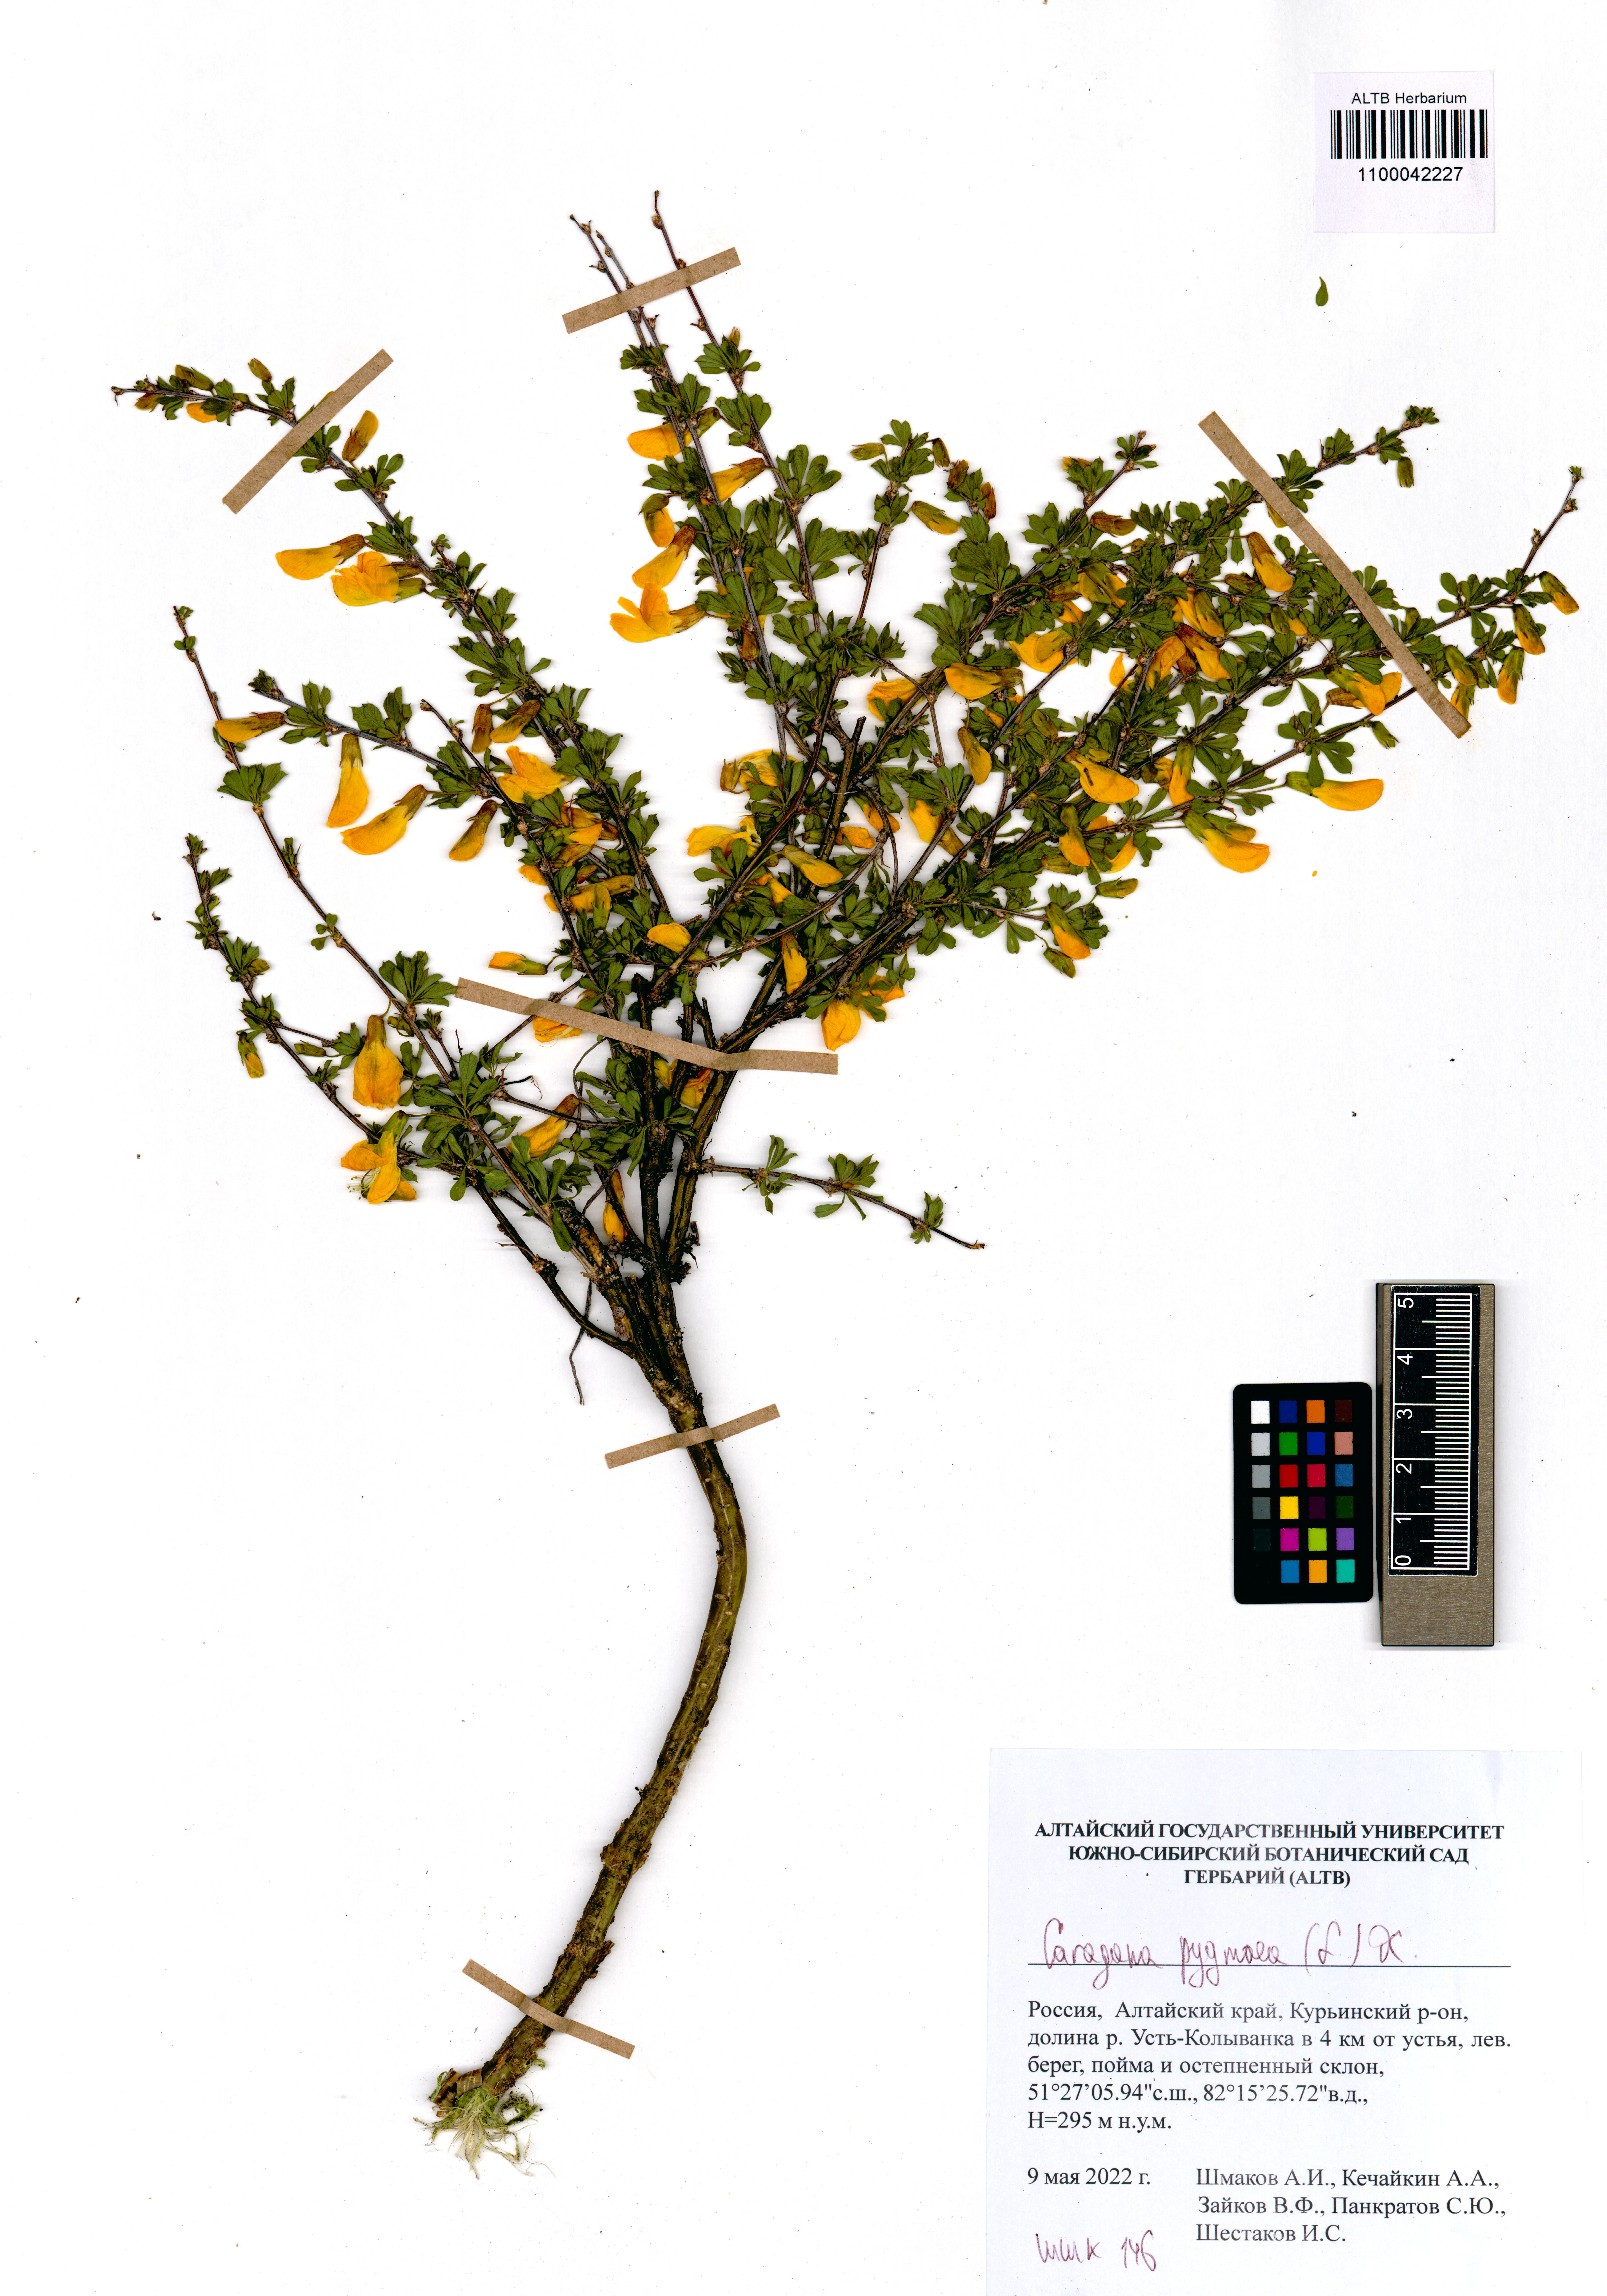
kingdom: Plantae
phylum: Tracheophyta
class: Magnoliopsida
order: Fabales
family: Fabaceae
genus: Caragana
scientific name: Caragana pygmaea
